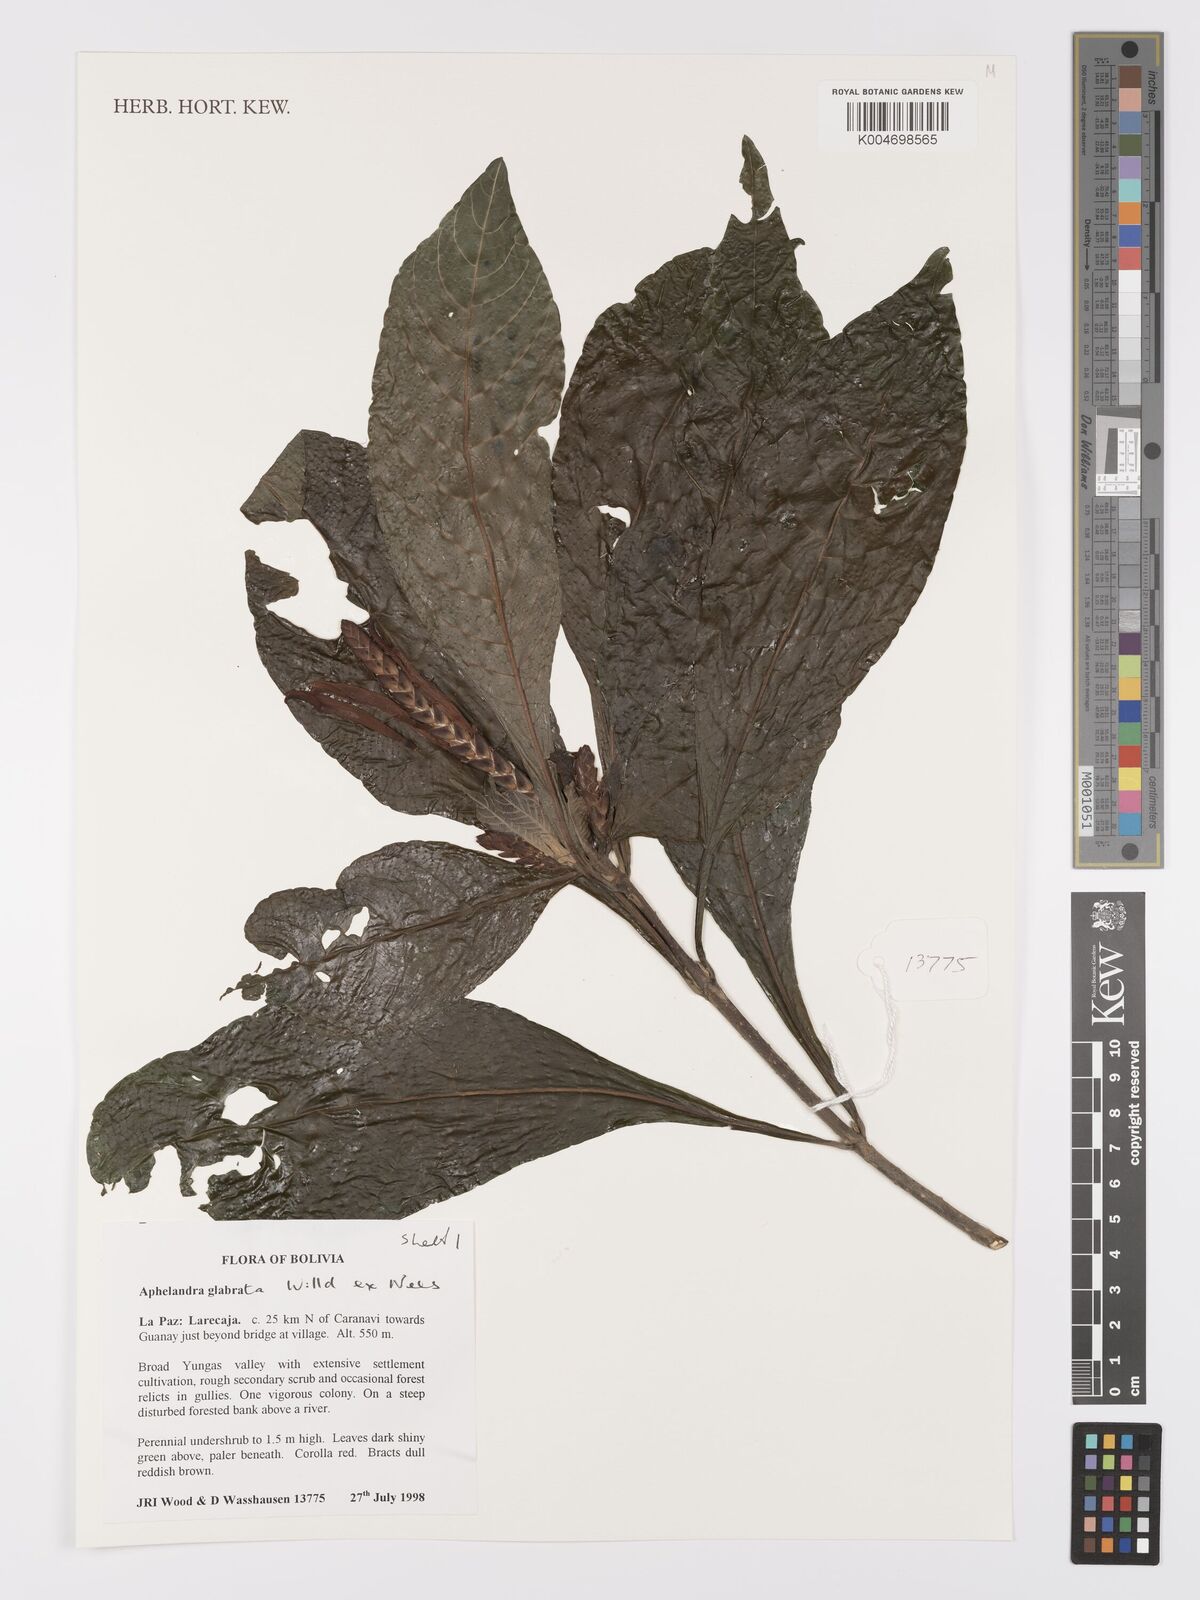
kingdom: Plantae
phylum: Tracheophyta
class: Magnoliopsida
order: Lamiales
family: Acanthaceae
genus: Aphelandra
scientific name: Aphelandra glabrata
